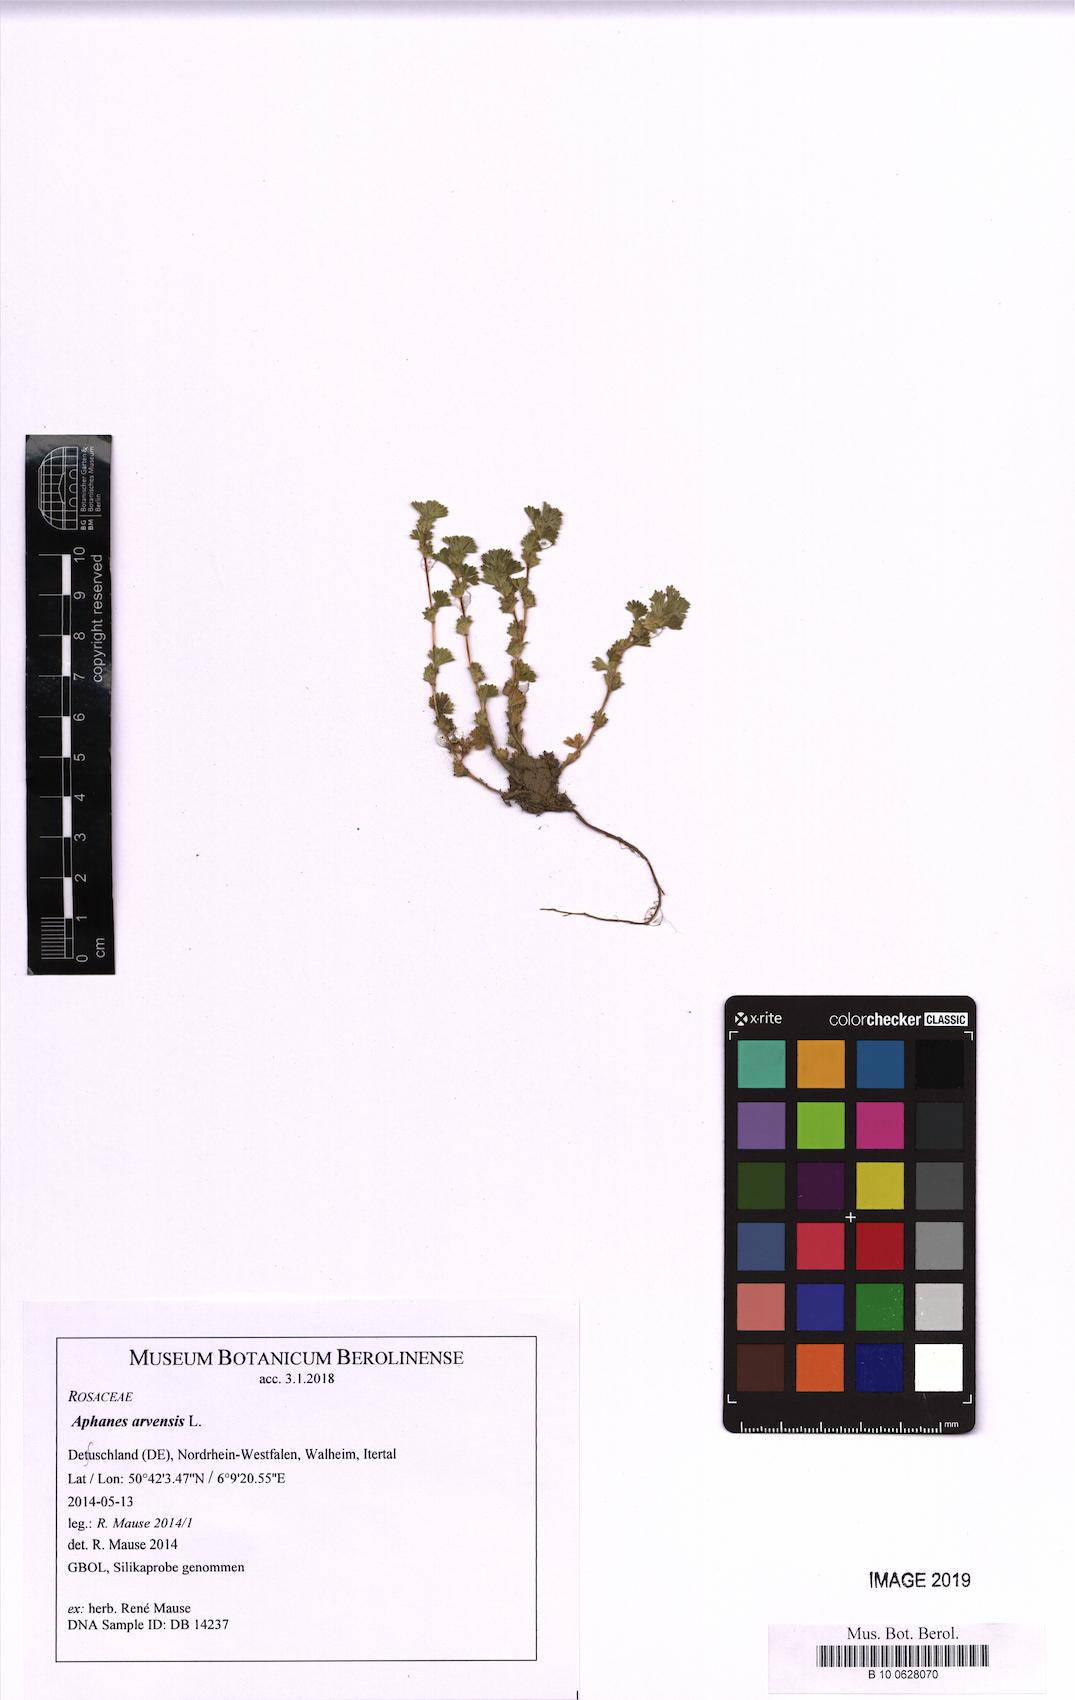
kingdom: Plantae
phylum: Tracheophyta
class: Magnoliopsida
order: Rosales
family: Rosaceae
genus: Aphanes
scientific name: Aphanes arvensis
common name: Parsley-piert
